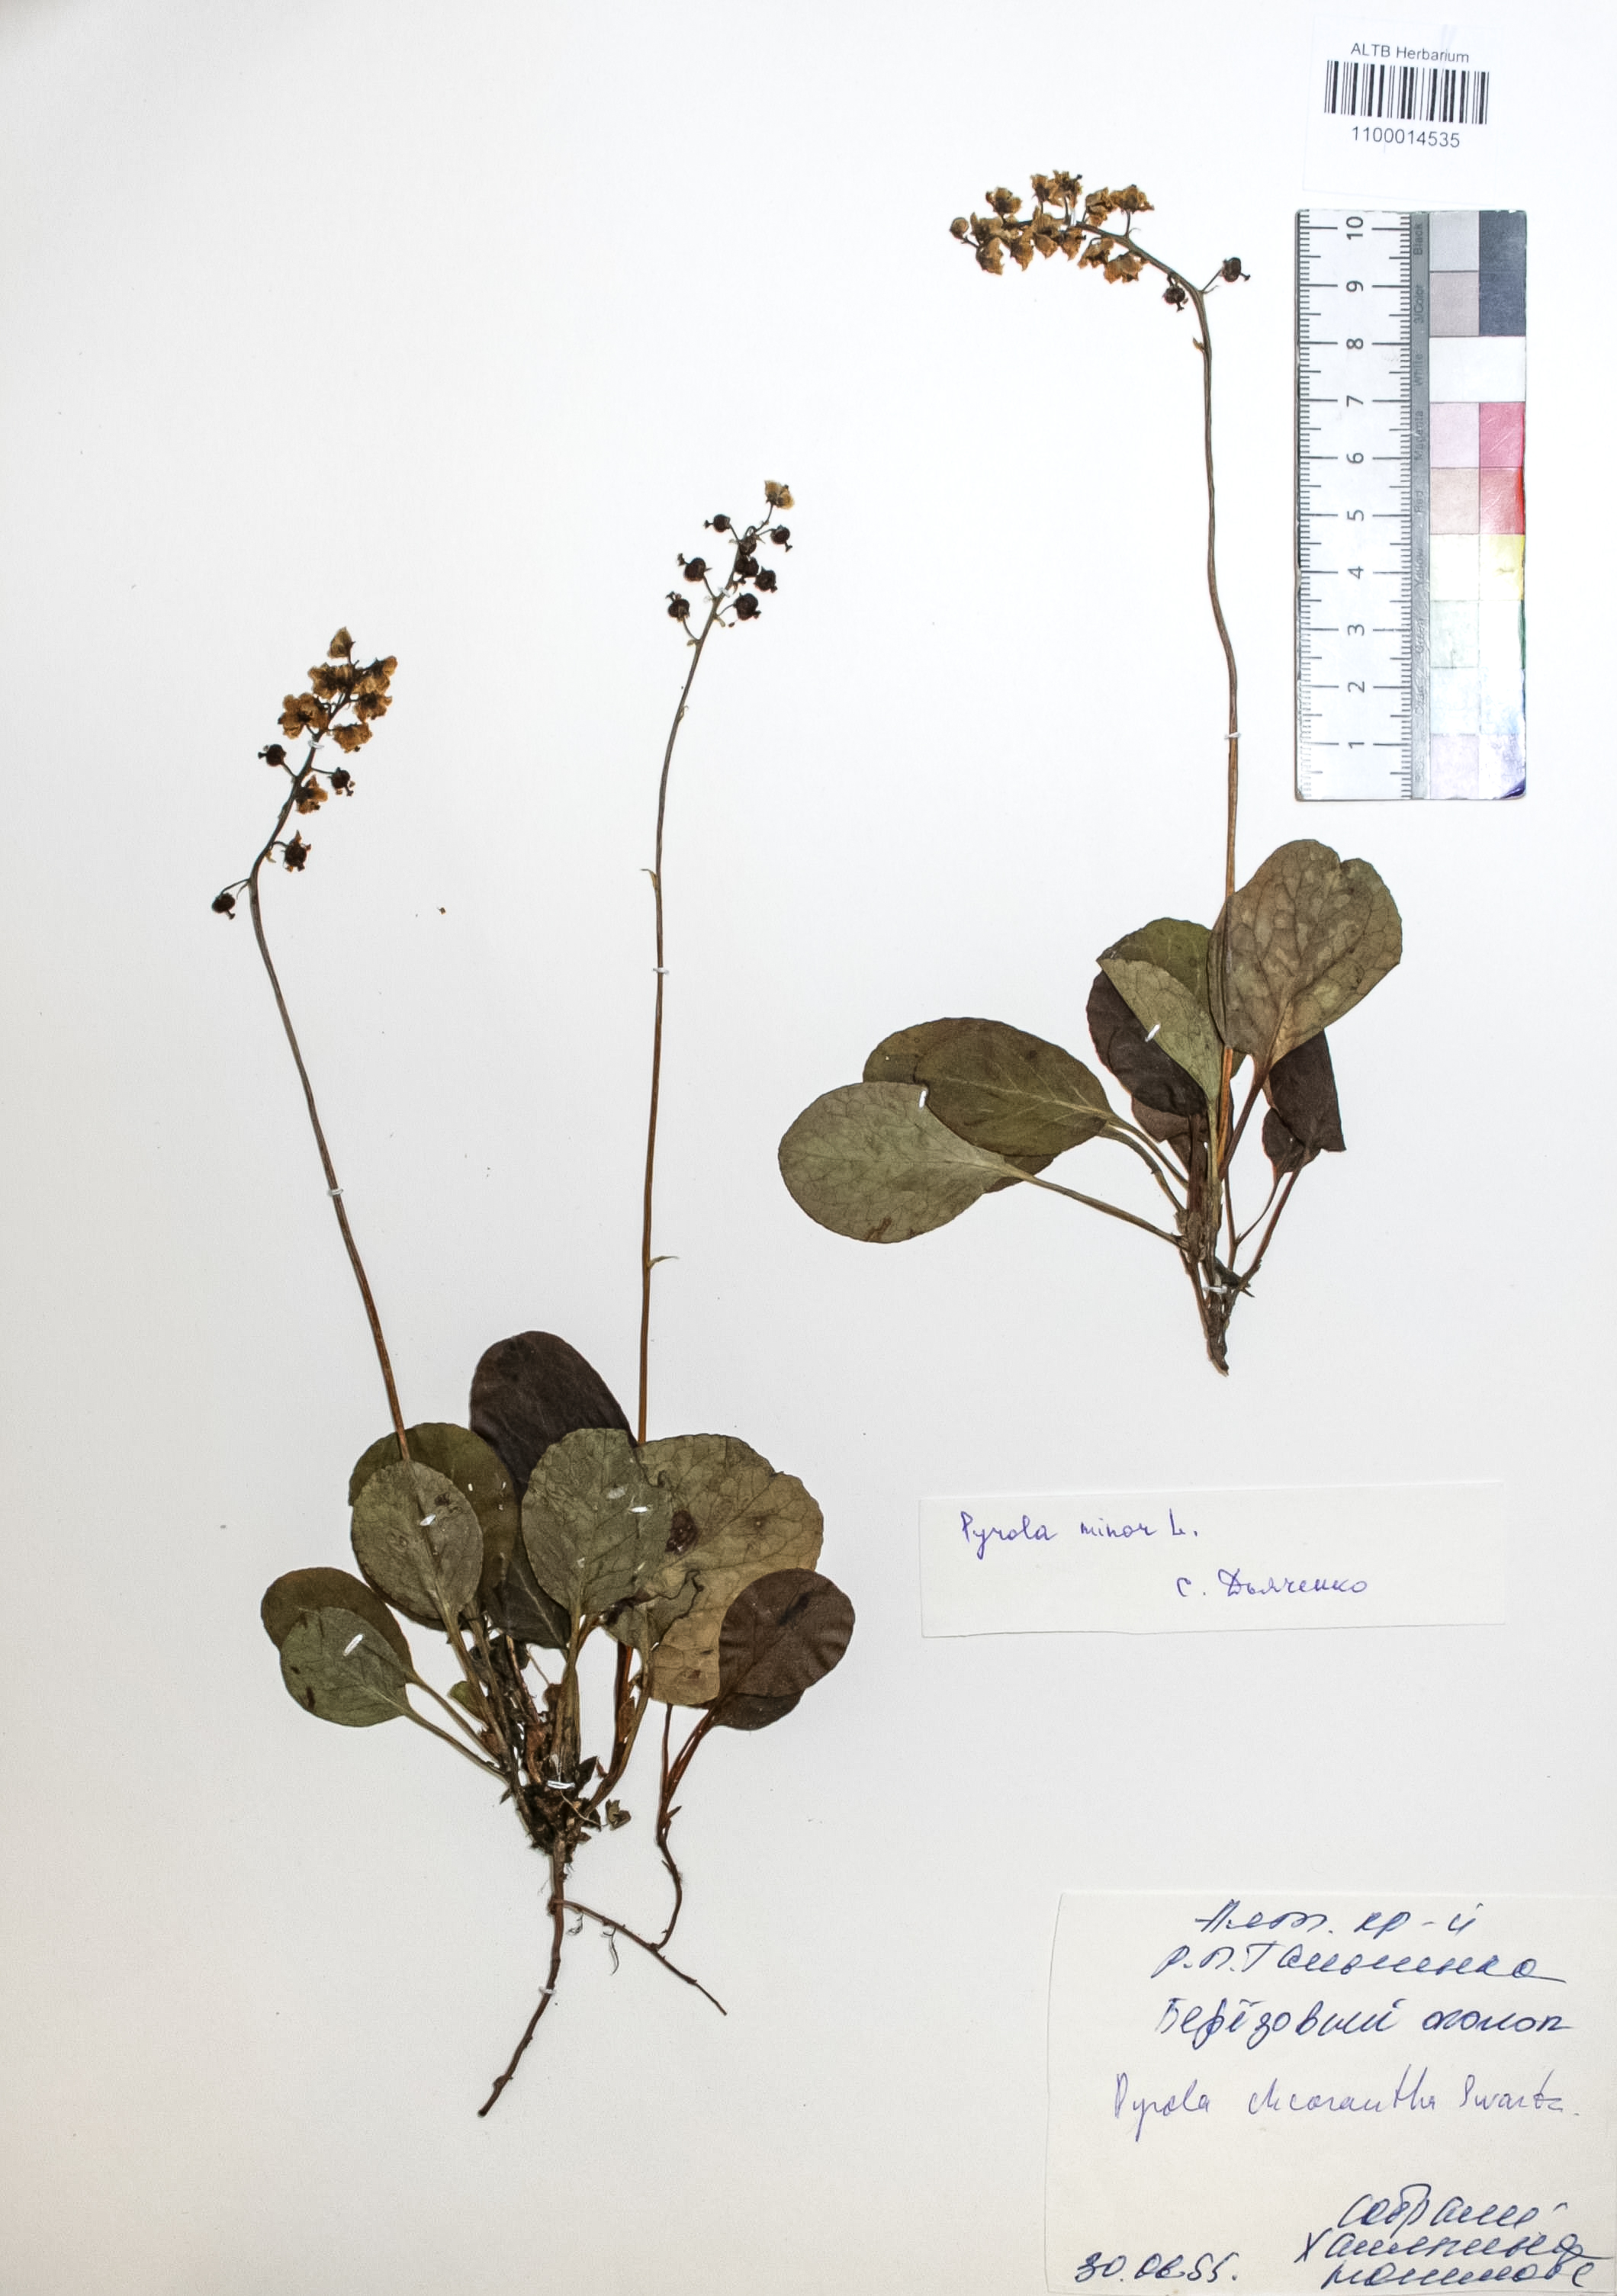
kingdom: Plantae
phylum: Tracheophyta
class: Magnoliopsida
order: Ericales
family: Ericaceae
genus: Pyrola
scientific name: Pyrola minor
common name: Common wintergreen
